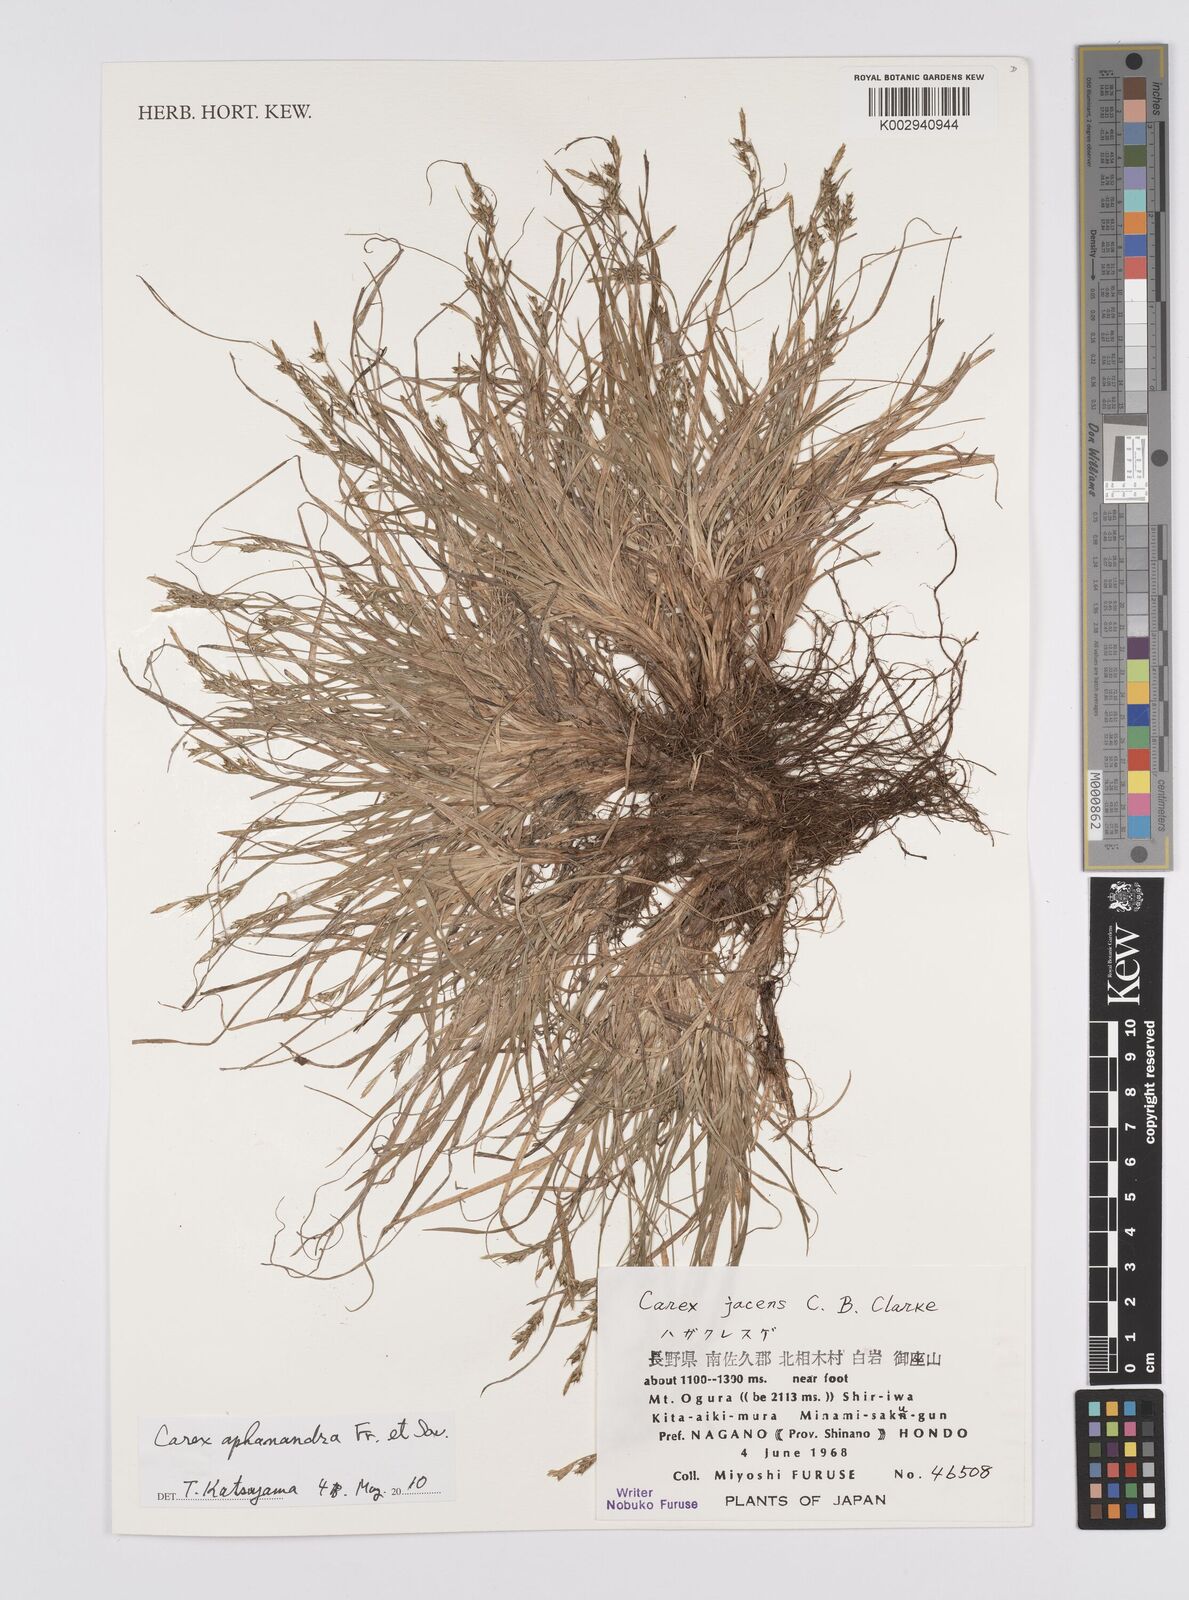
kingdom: Plantae
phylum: Tracheophyta
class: Liliopsida
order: Poales
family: Cyperaceae
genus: Carex
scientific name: Carex breviculmis
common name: Asian shortstem sedge
